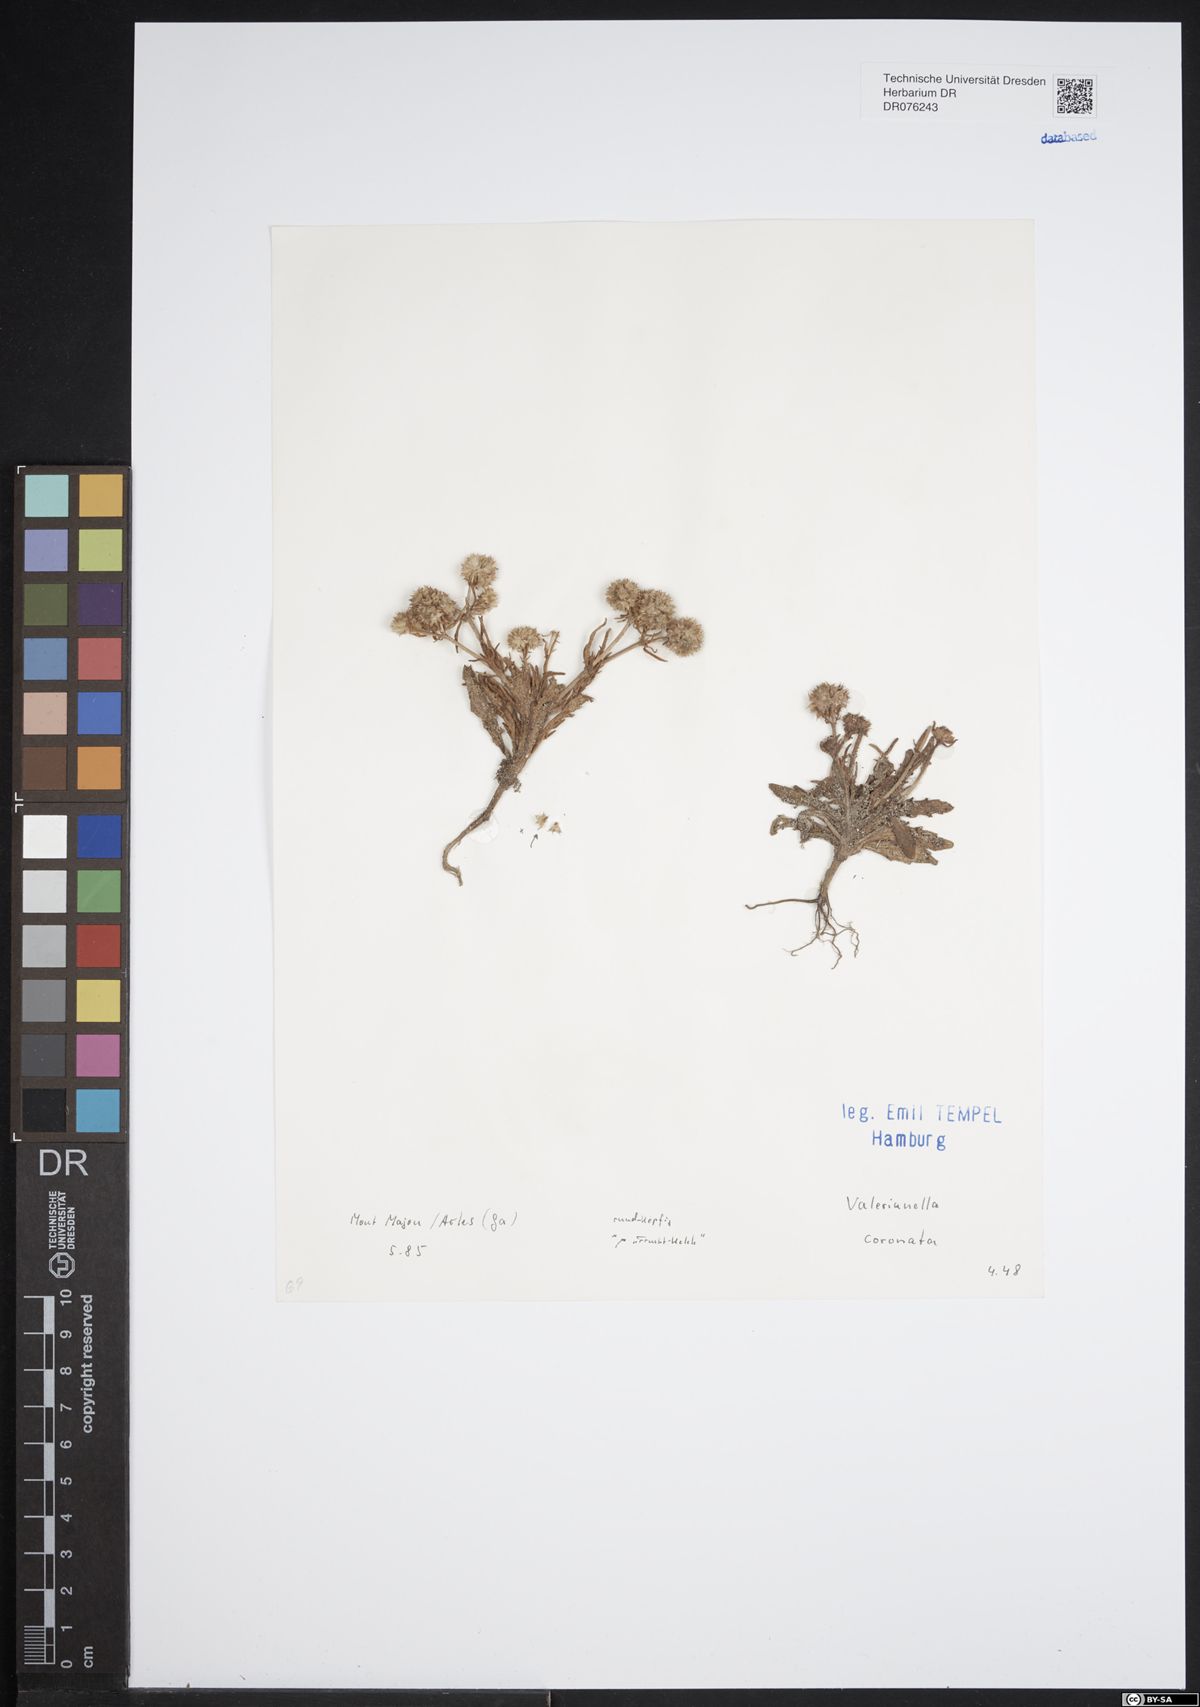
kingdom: Plantae
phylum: Tracheophyta
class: Magnoliopsida
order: Dipsacales
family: Caprifoliaceae
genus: Valerianella
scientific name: Valerianella coronata
